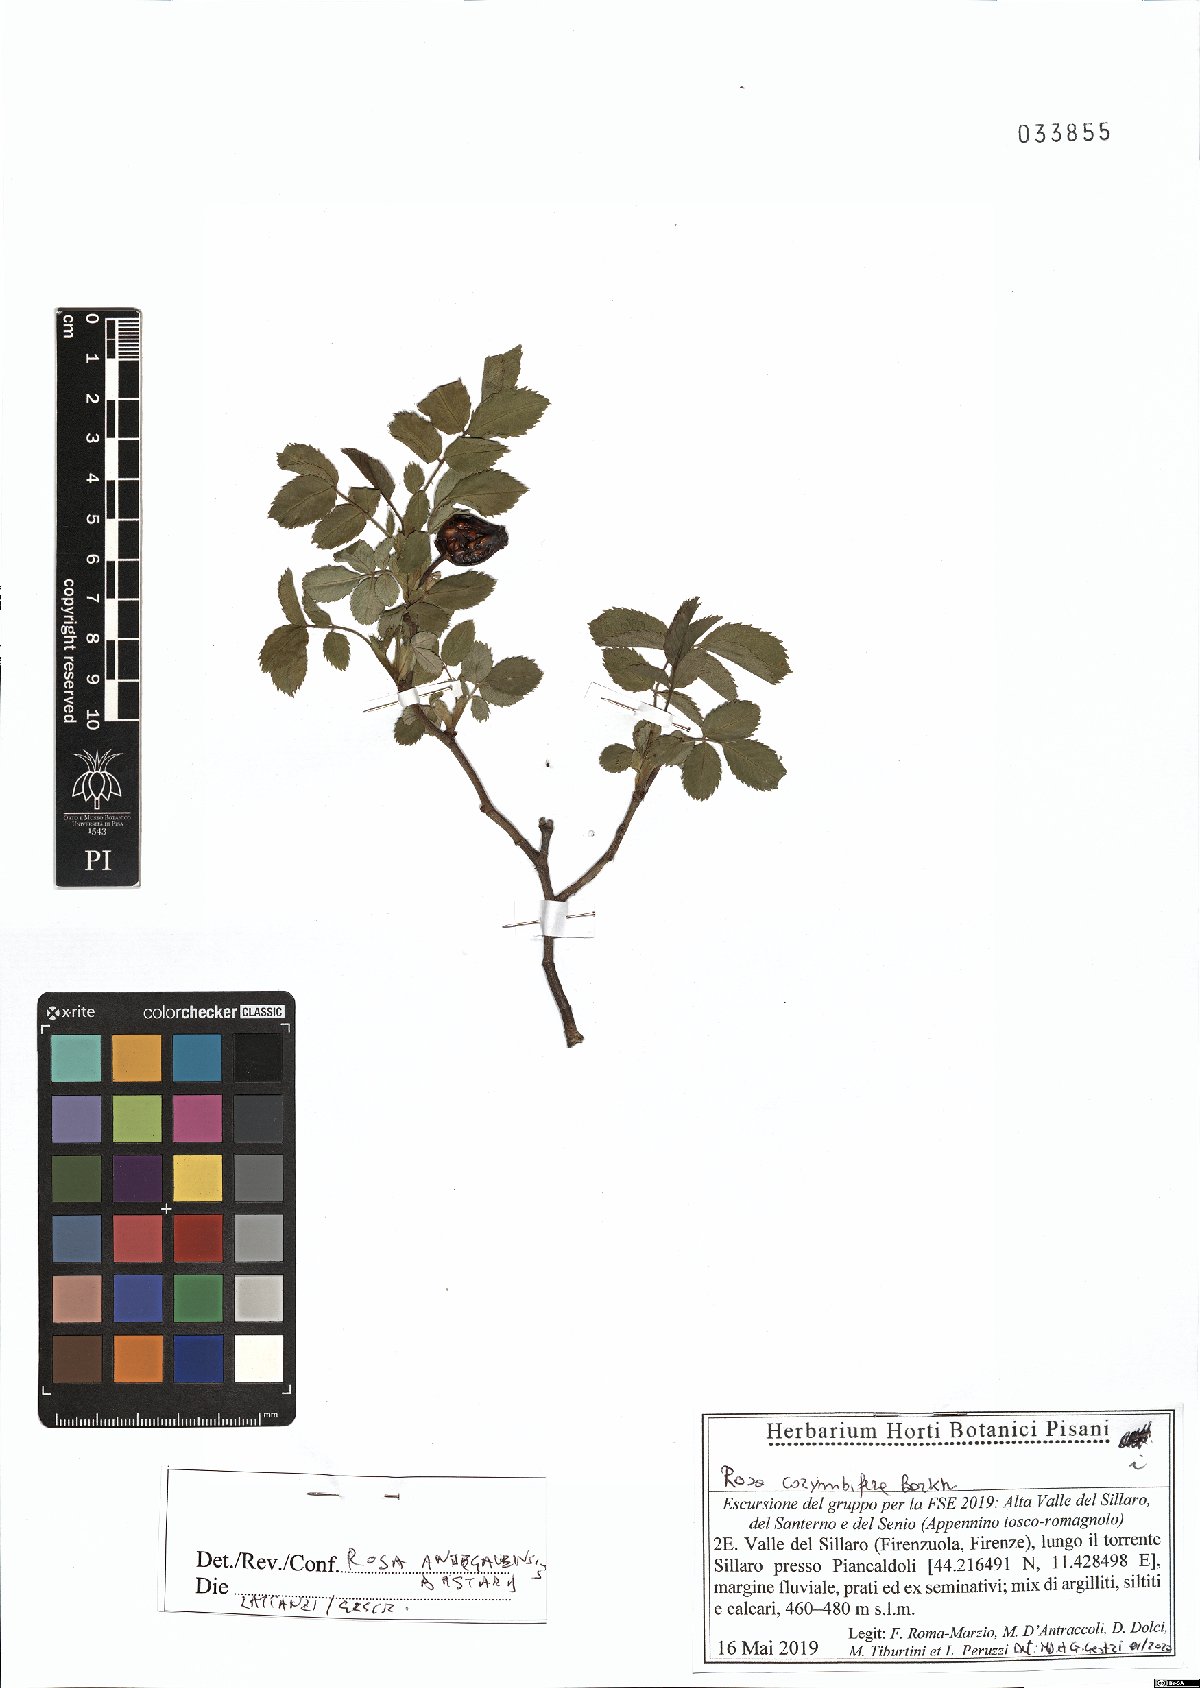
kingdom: Plantae
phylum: Tracheophyta
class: Magnoliopsida
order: Rosales
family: Rosaceae
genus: Rosa
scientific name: Rosa canina
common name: Dog rose
